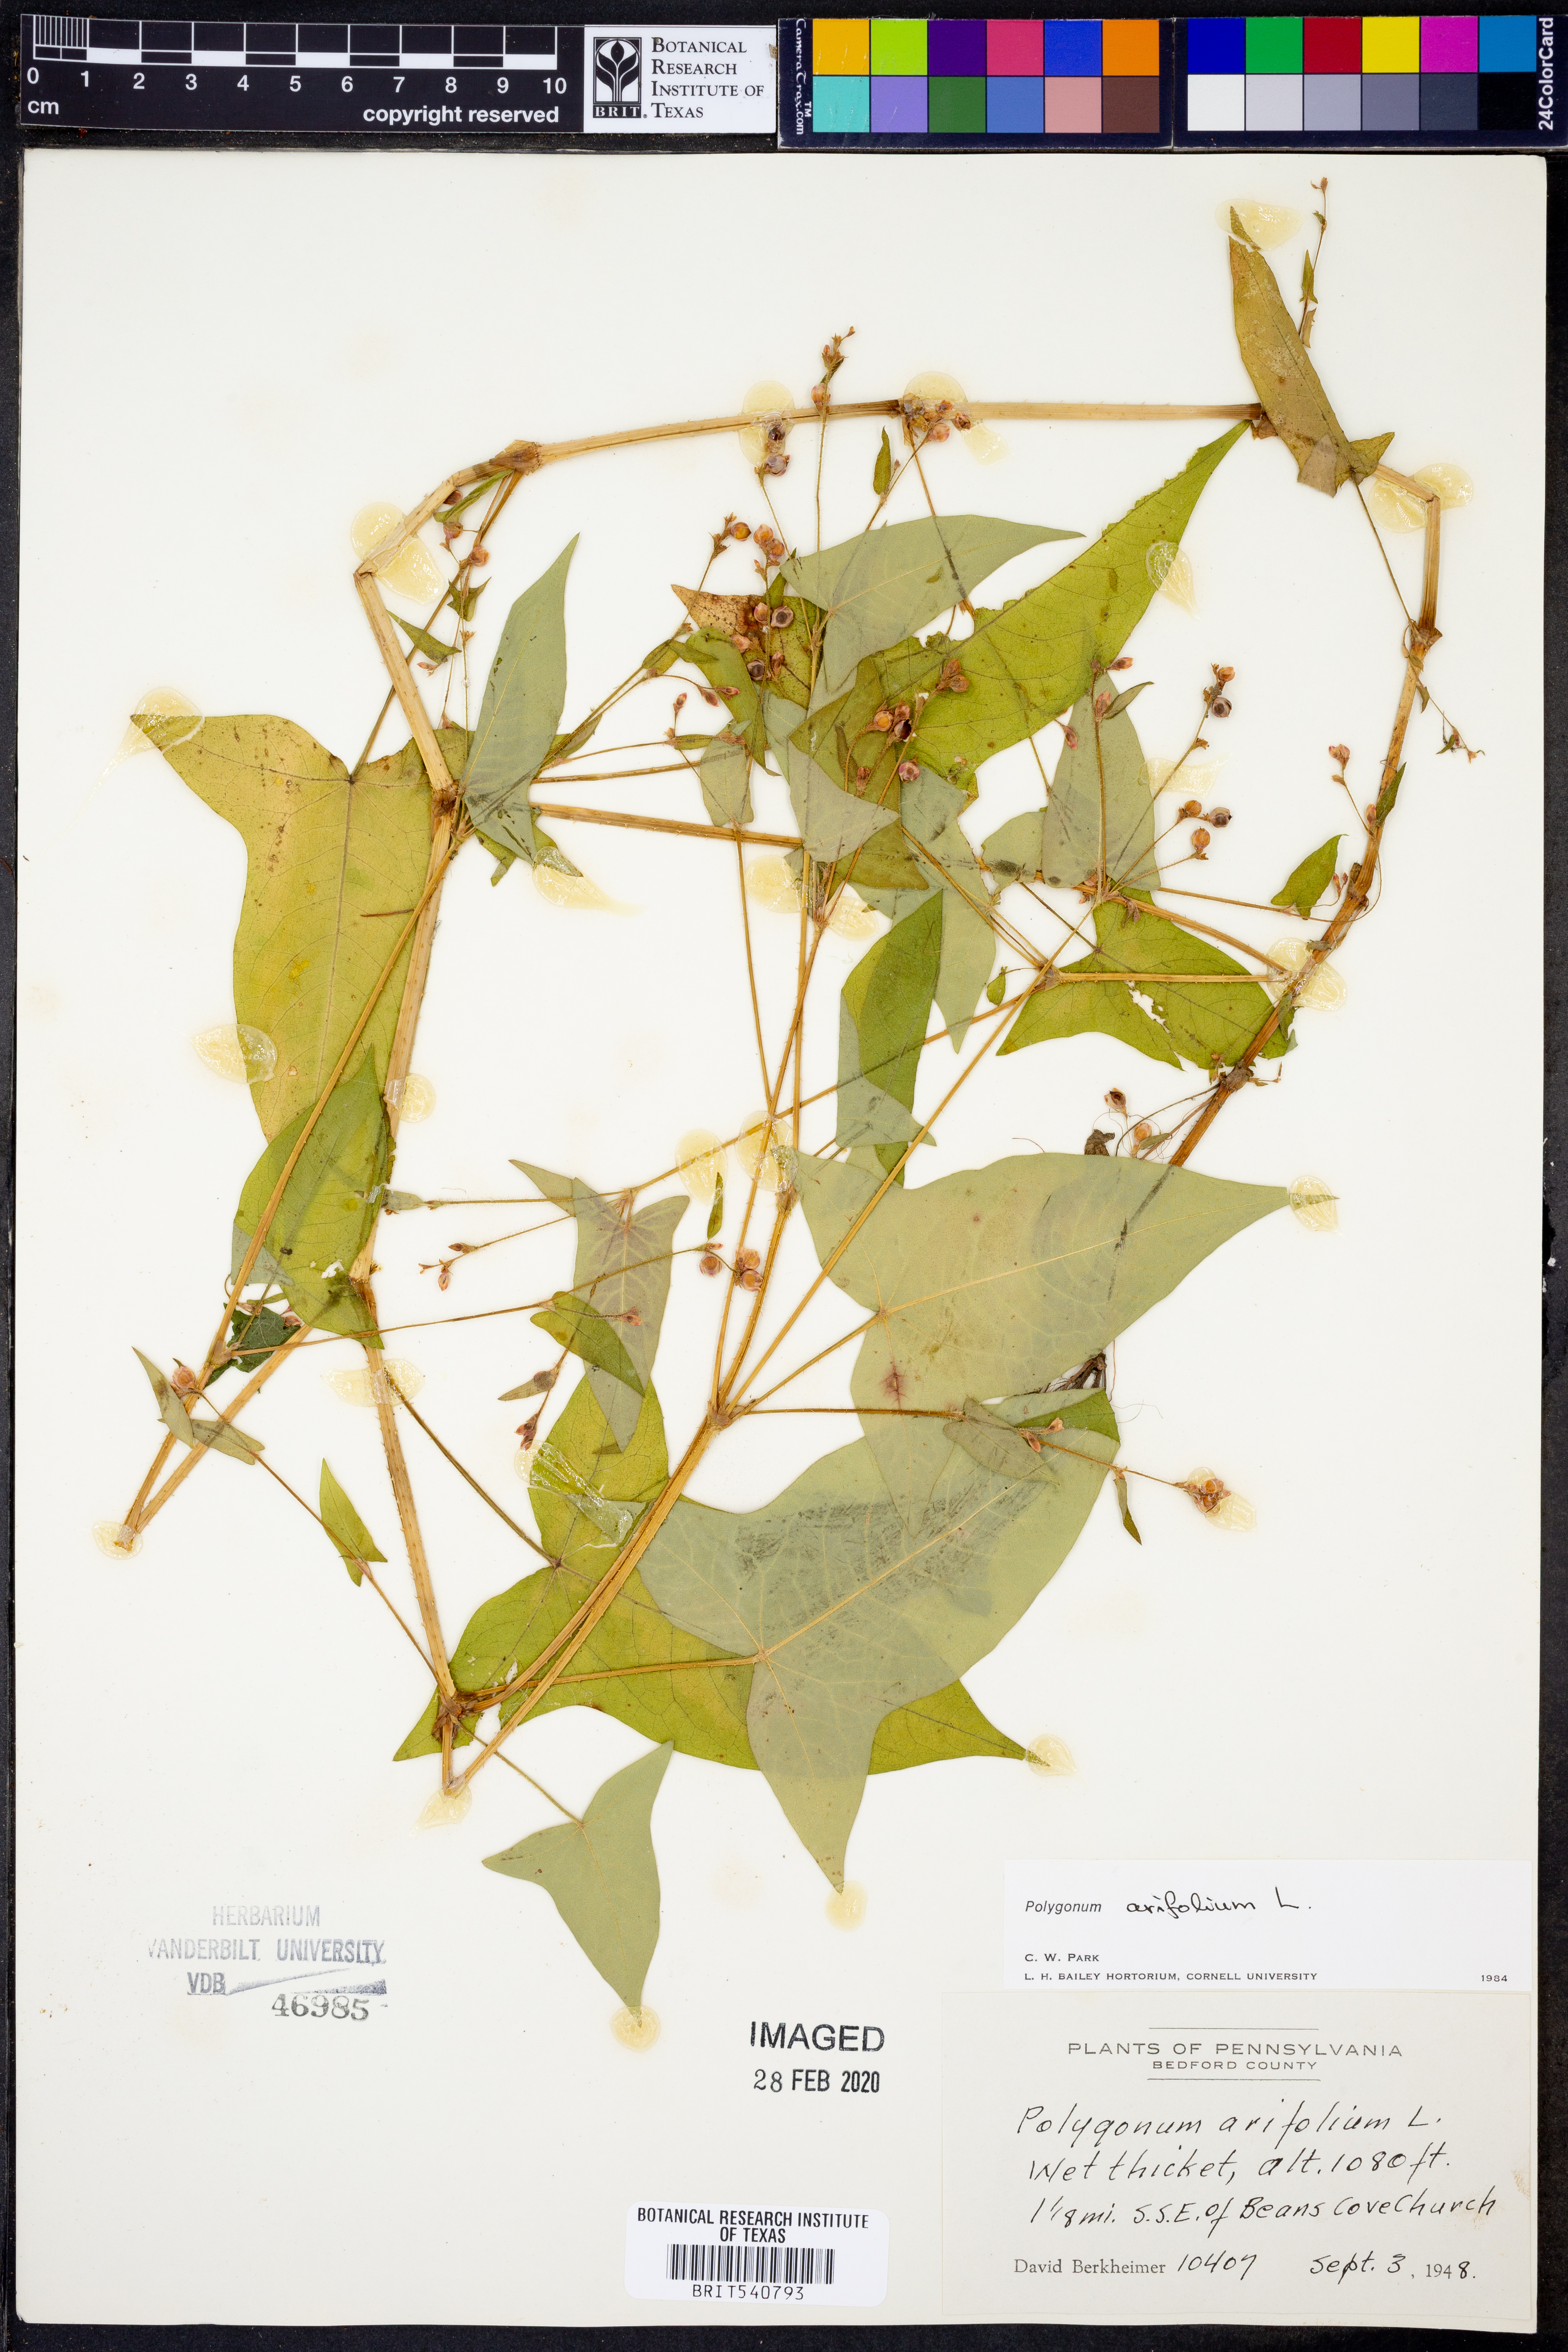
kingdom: Plantae
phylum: Tracheophyta
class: Magnoliopsida
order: Caryophyllales
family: Polygonaceae
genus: Persicaria
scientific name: Persicaria arifolia
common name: Halberd-leaved tear-thumb
